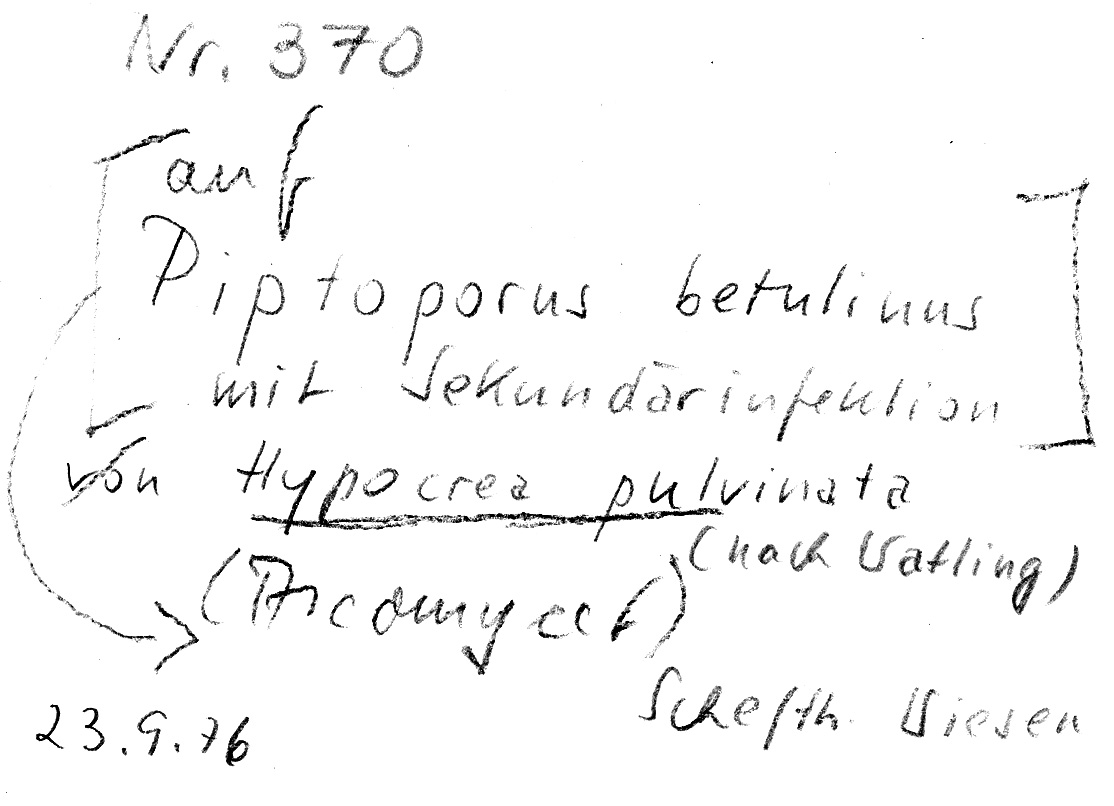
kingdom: Fungi
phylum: Ascomycota
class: Sordariomycetes
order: Hypocreales
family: Hypocreaceae
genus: Trichoderma
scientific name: Trichoderma pulvinatum
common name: Ochre cushion
